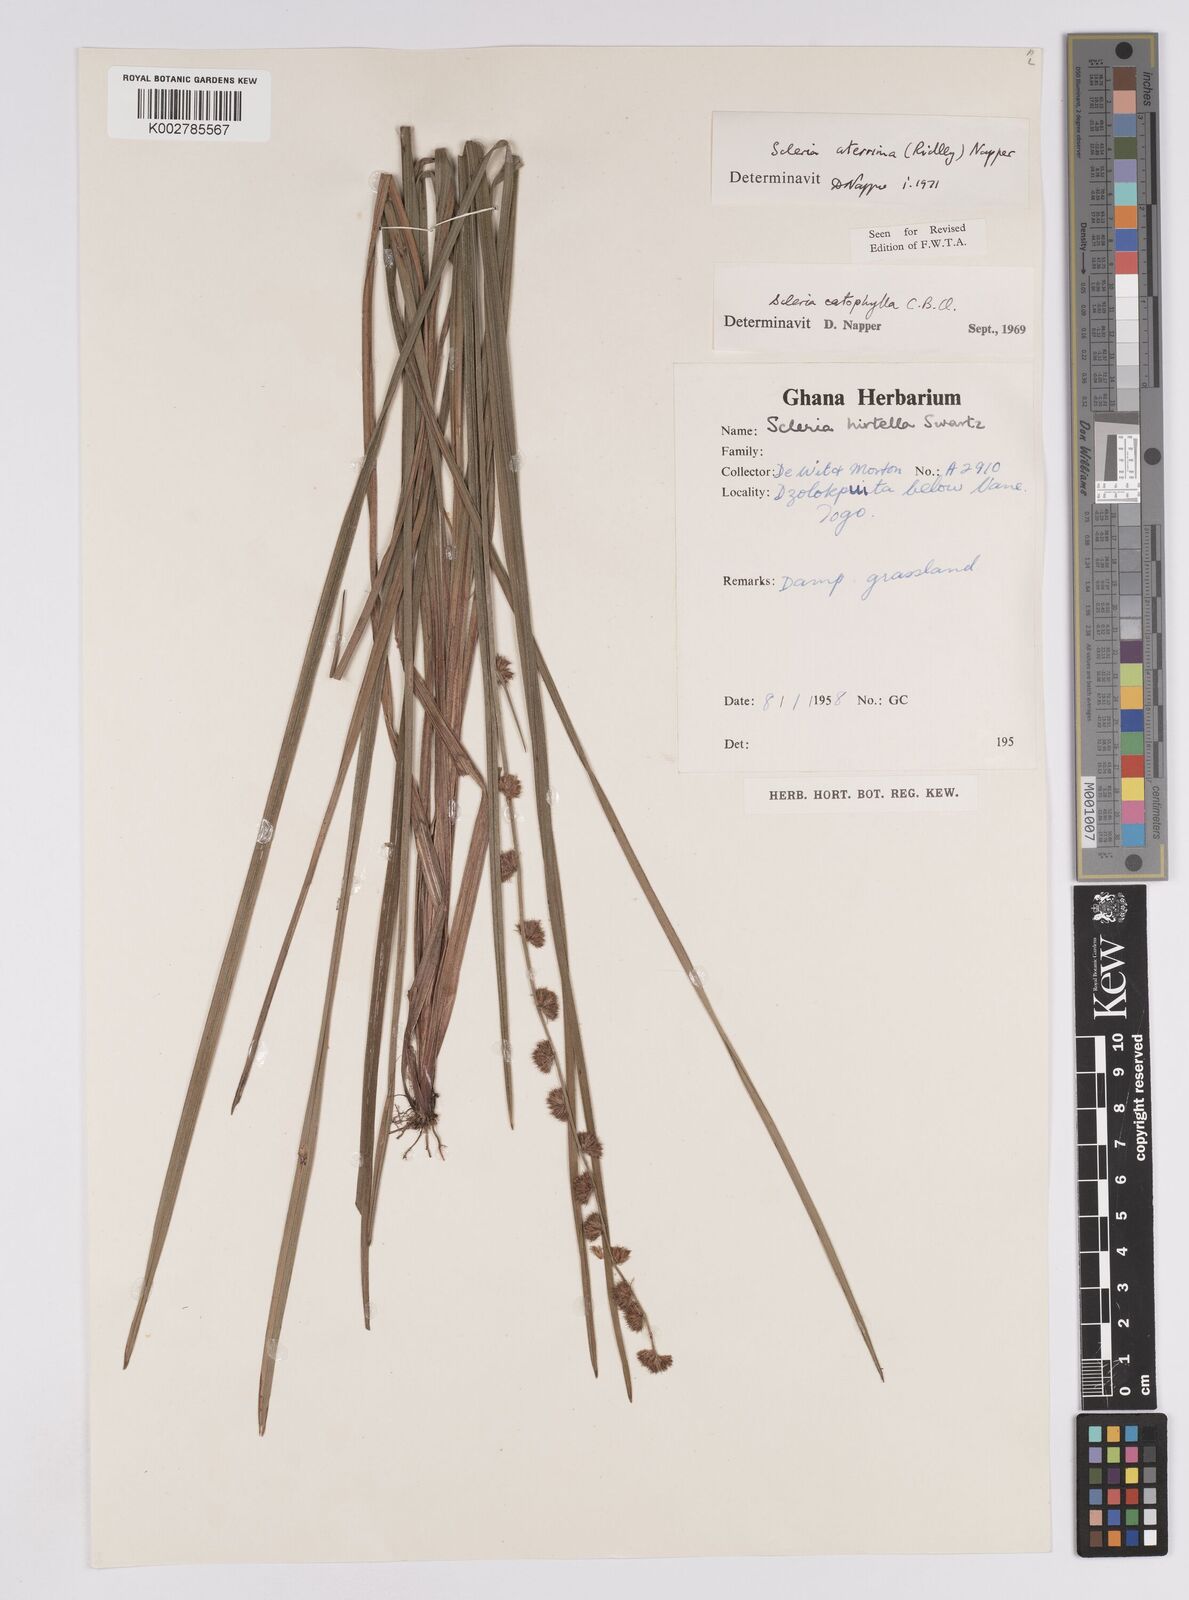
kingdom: Plantae
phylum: Tracheophyta
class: Liliopsida
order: Poales
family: Cyperaceae
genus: Scleria
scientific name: Scleria catophylla
